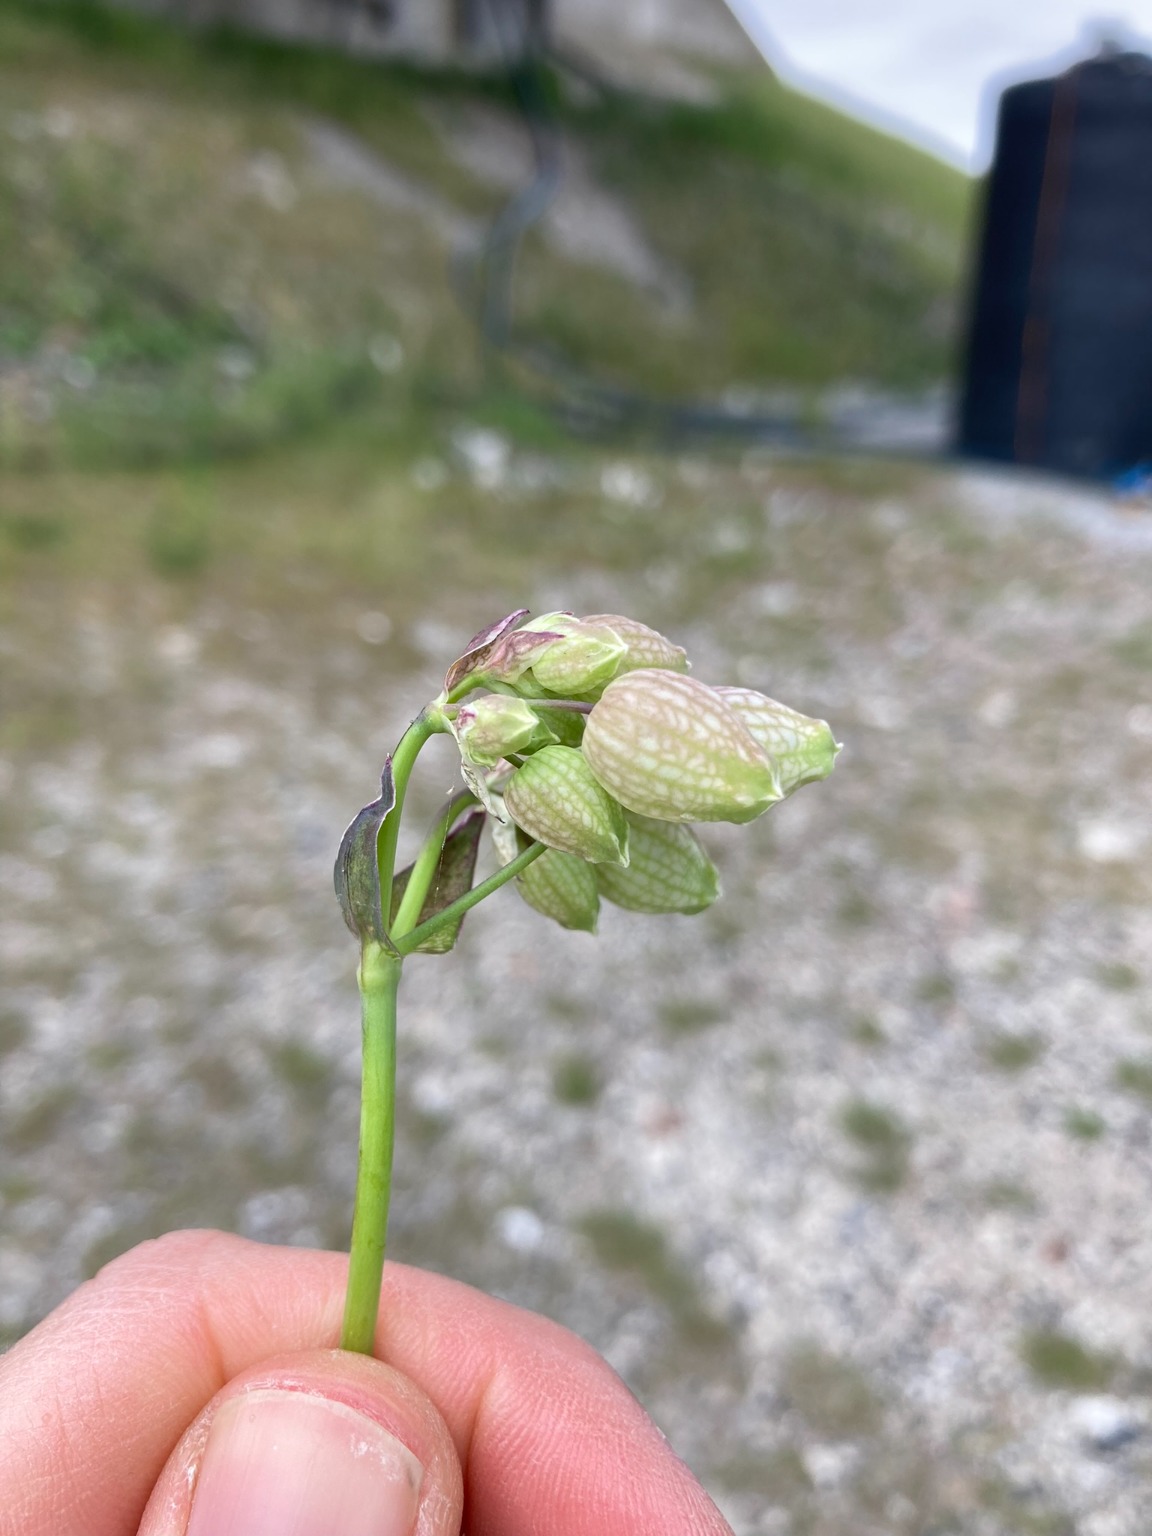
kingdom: Plantae
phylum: Tracheophyta
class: Magnoliopsida
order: Caryophyllales
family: Caryophyllaceae
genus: Silene
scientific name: Silene vulgaris
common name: Blæresmælde
